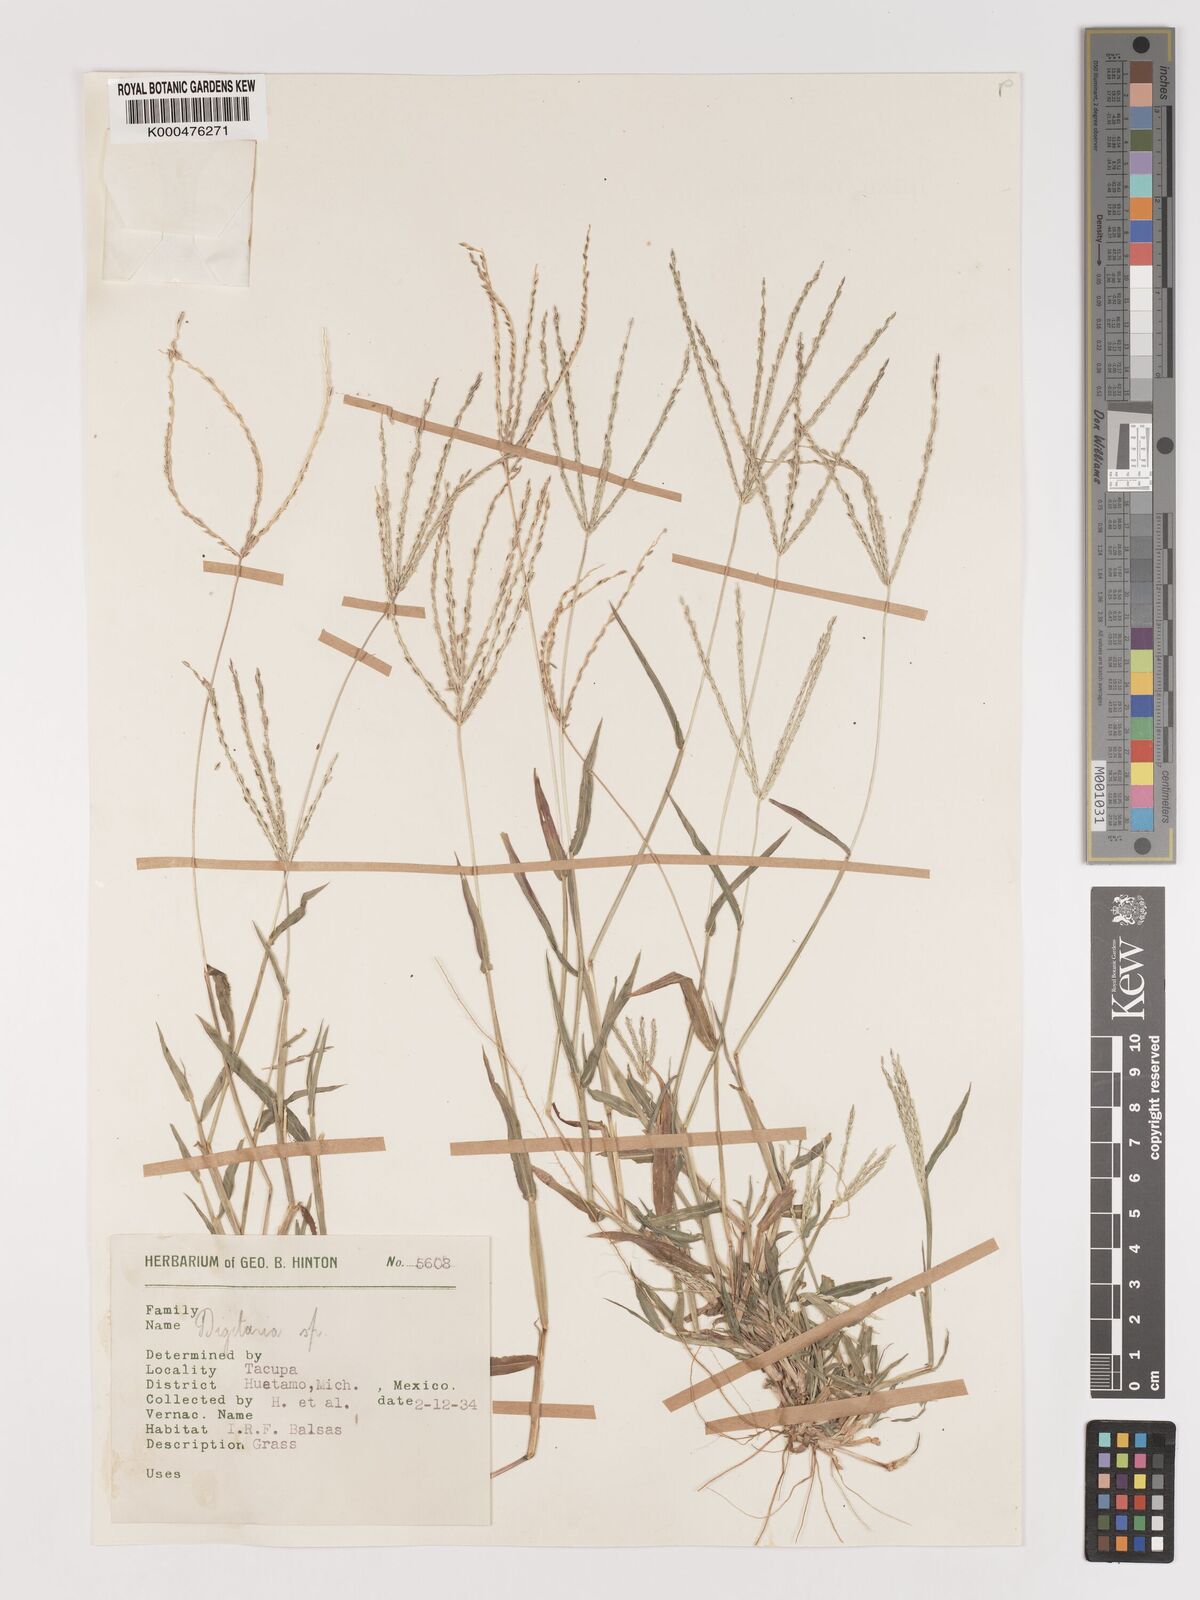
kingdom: Plantae
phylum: Tracheophyta
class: Liliopsida
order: Poales
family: Poaceae
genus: Digitaria
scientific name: Digitaria nuda
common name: Naked crabgrass
